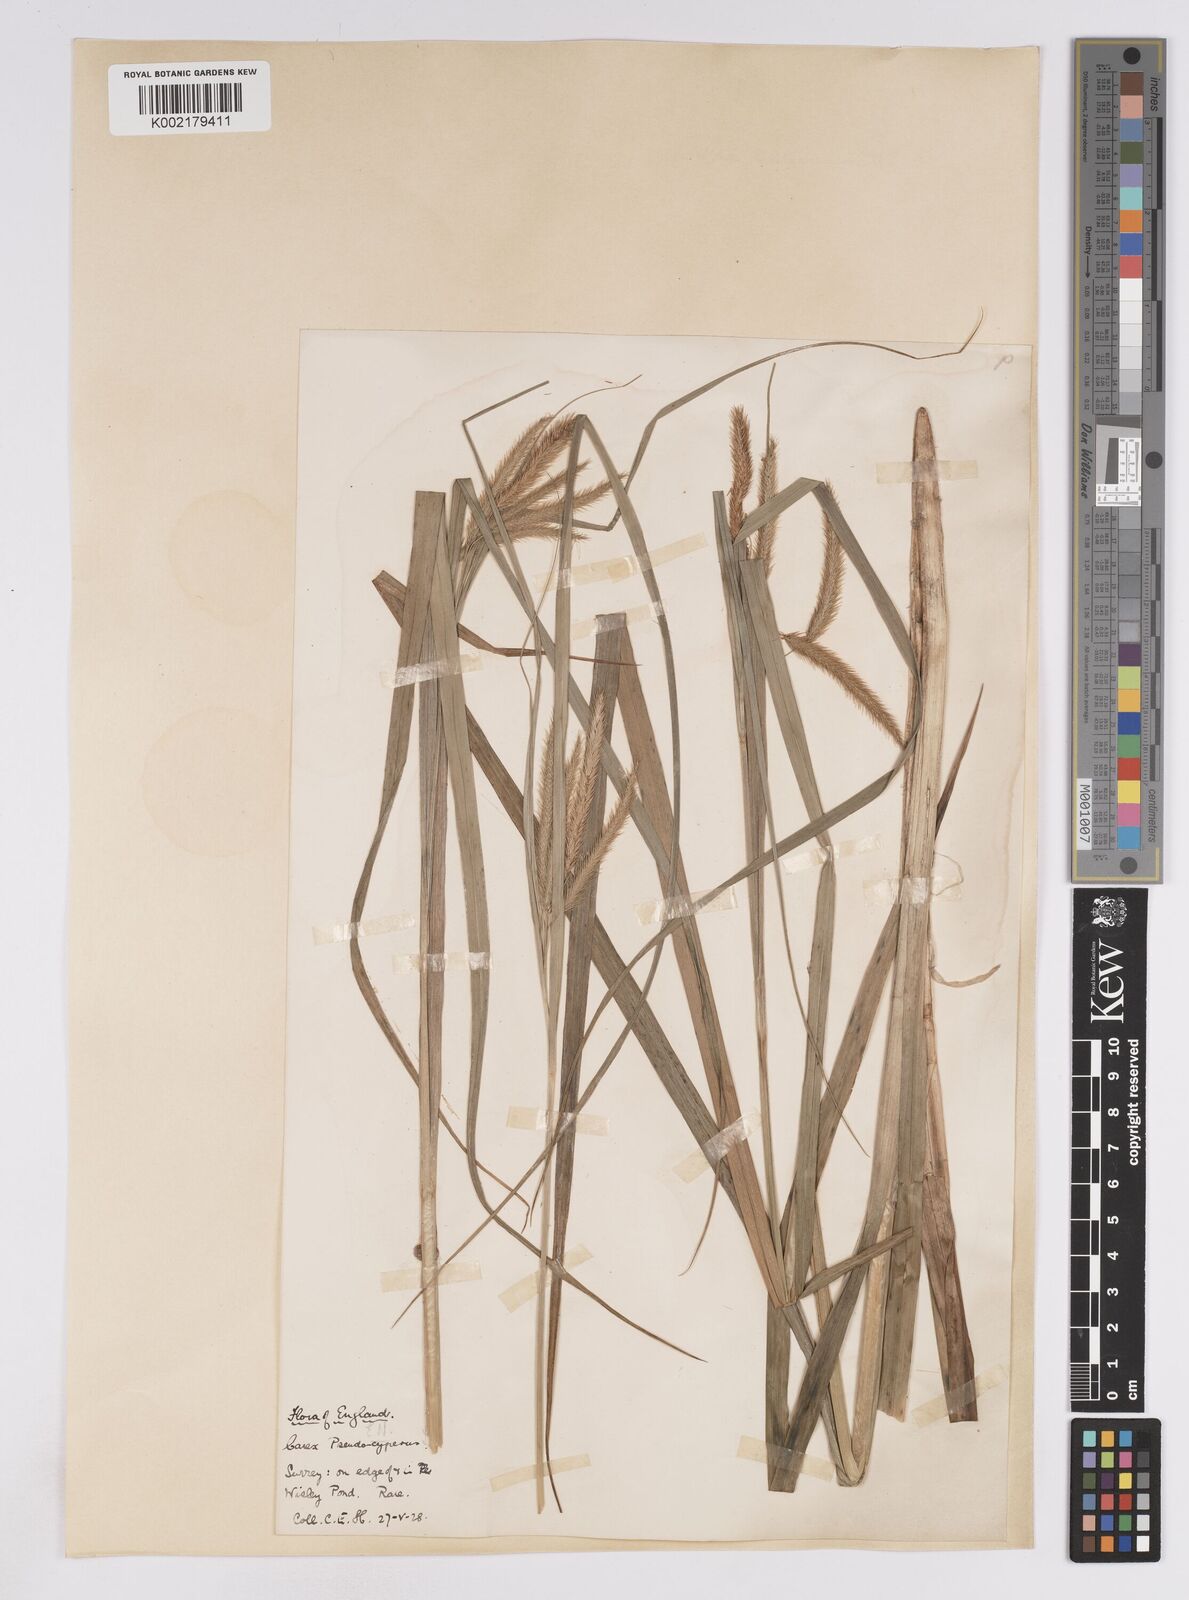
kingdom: Plantae
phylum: Tracheophyta
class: Liliopsida
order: Poales
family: Cyperaceae
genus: Carex
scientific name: Carex pseudocyperus
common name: Cyperus sedge
